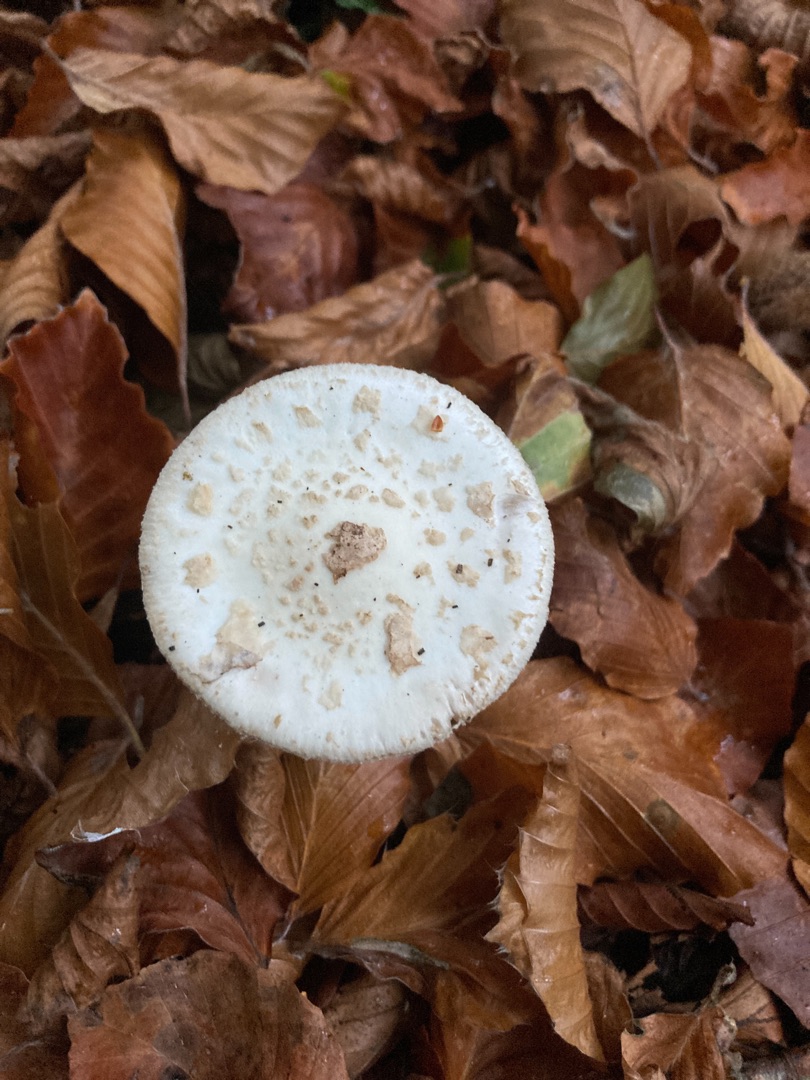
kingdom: Fungi
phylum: Basidiomycota
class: Agaricomycetes
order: Agaricales
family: Amanitaceae
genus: Amanita
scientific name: Amanita citrina
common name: Kugleknoldet fluesvamp
